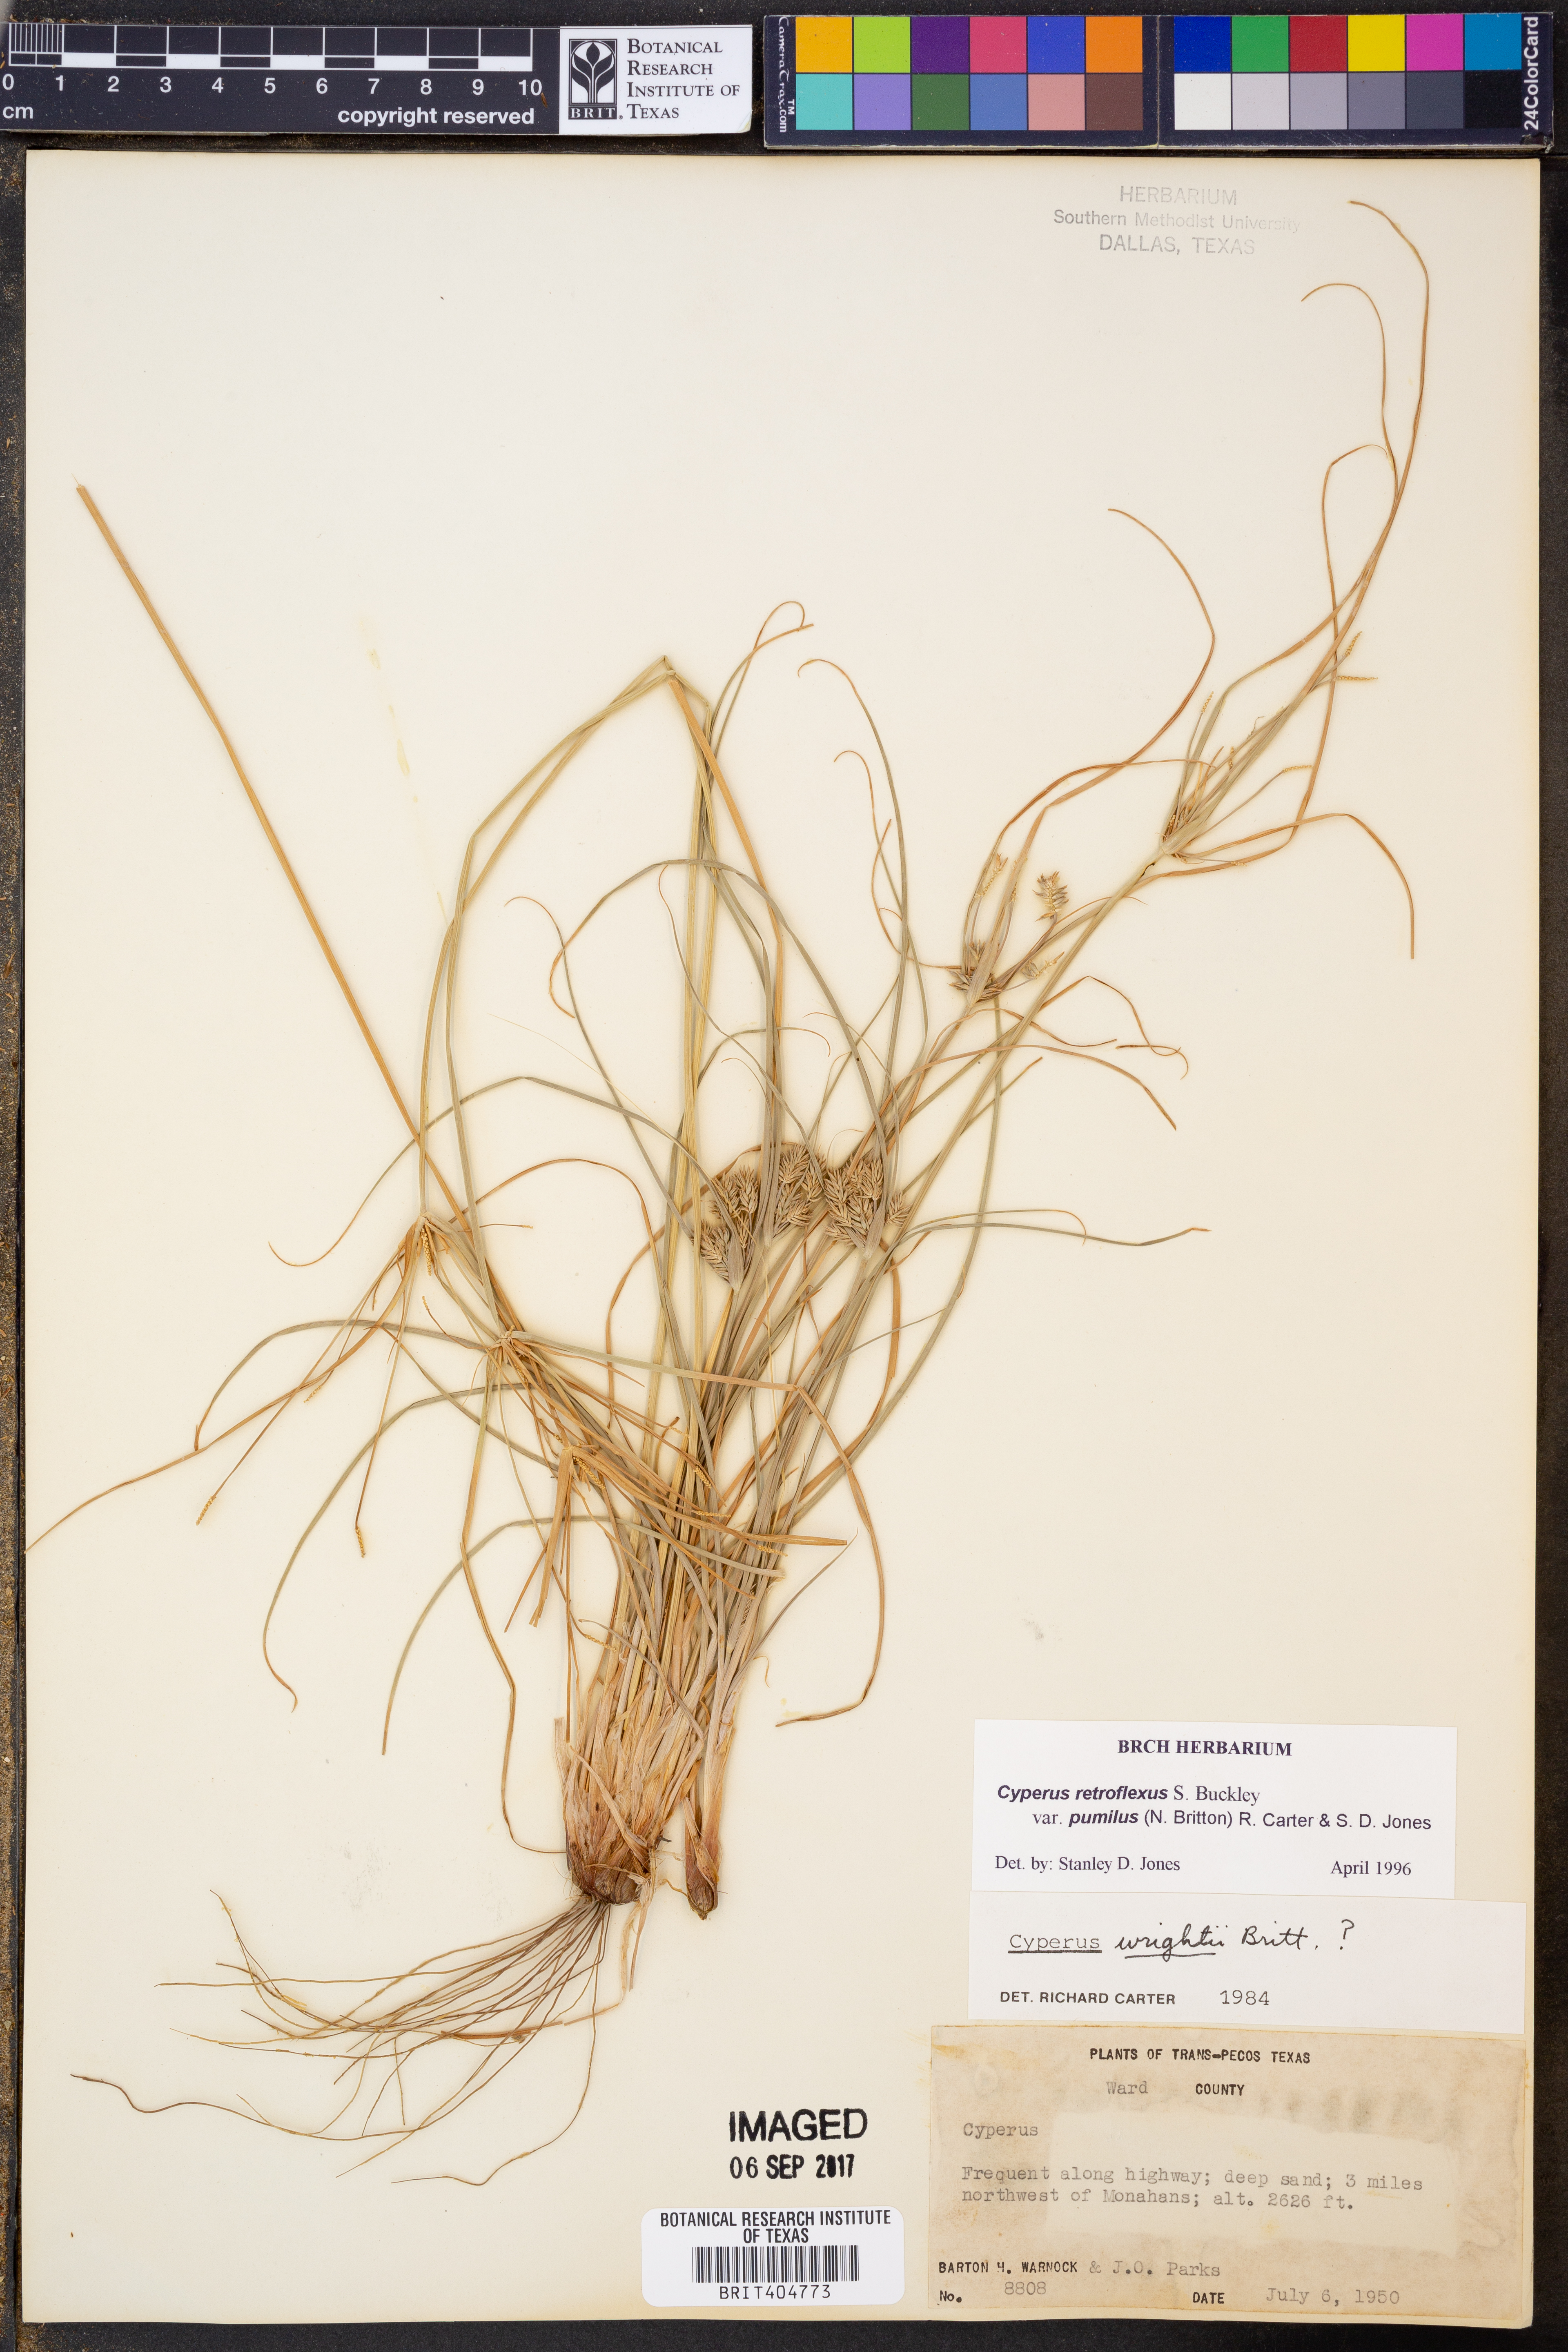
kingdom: Plantae
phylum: Tracheophyta
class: Liliopsida
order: Poales
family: Cyperaceae
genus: Cyperus
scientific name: Cyperus retroflexus
